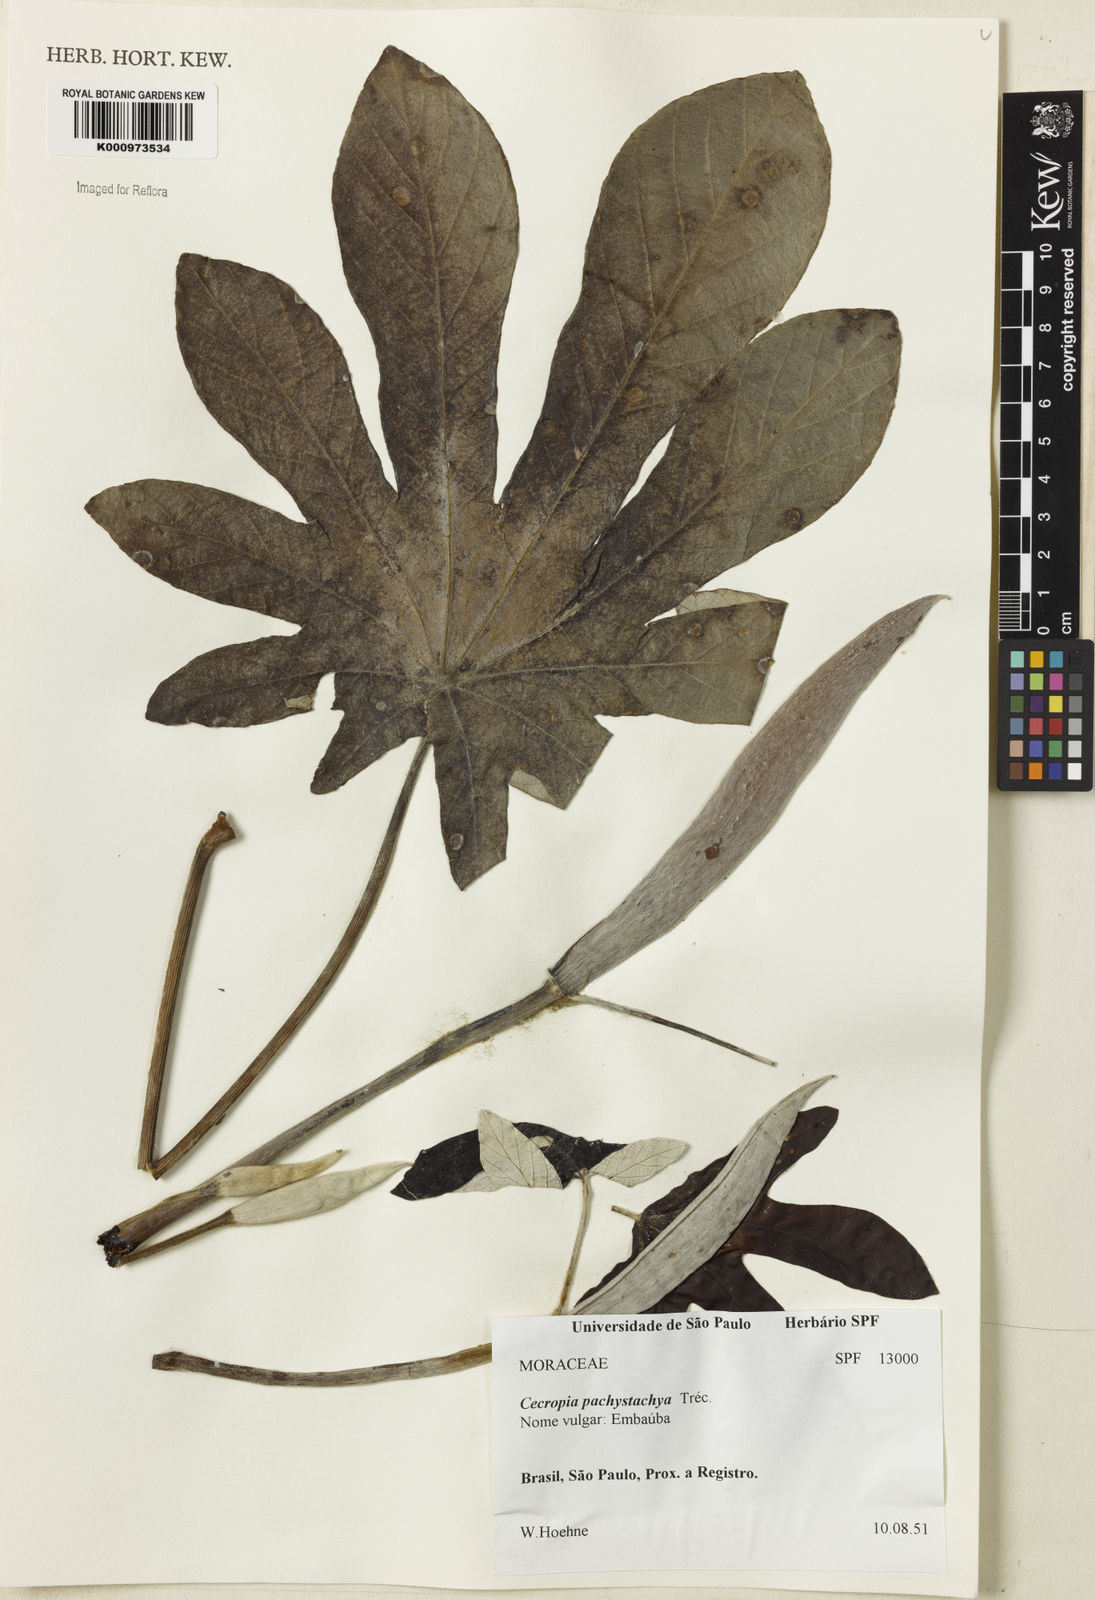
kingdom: Plantae
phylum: Tracheophyta
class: Magnoliopsida
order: Rosales
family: Urticaceae
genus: Cecropia
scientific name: Cecropia
